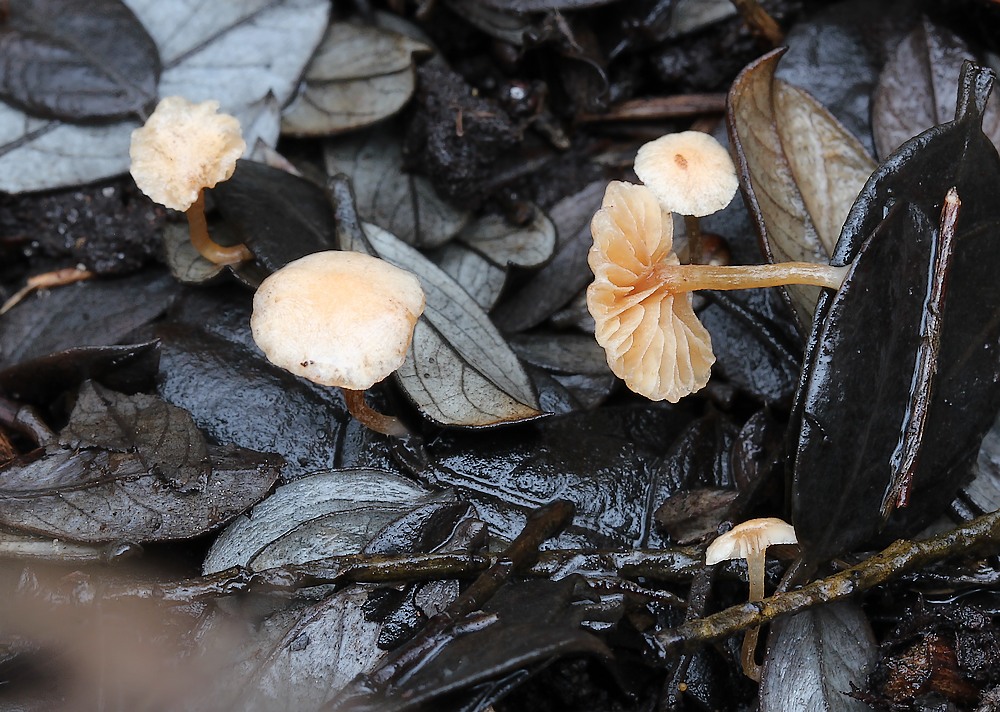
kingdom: Fungi
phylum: Basidiomycota
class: Agaricomycetes
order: Agaricales
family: Tubariaceae
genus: Flammulaster
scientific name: Flammulaster carpophilus
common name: bøge-grynskælhat
